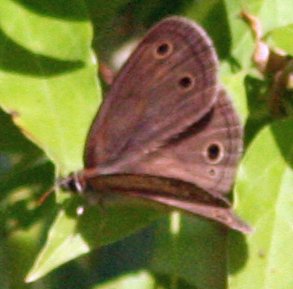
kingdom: Animalia
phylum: Arthropoda
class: Insecta
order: Lepidoptera
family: Nymphalidae
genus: Euptychia
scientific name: Euptychia cymela
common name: Little Wood Satyr
